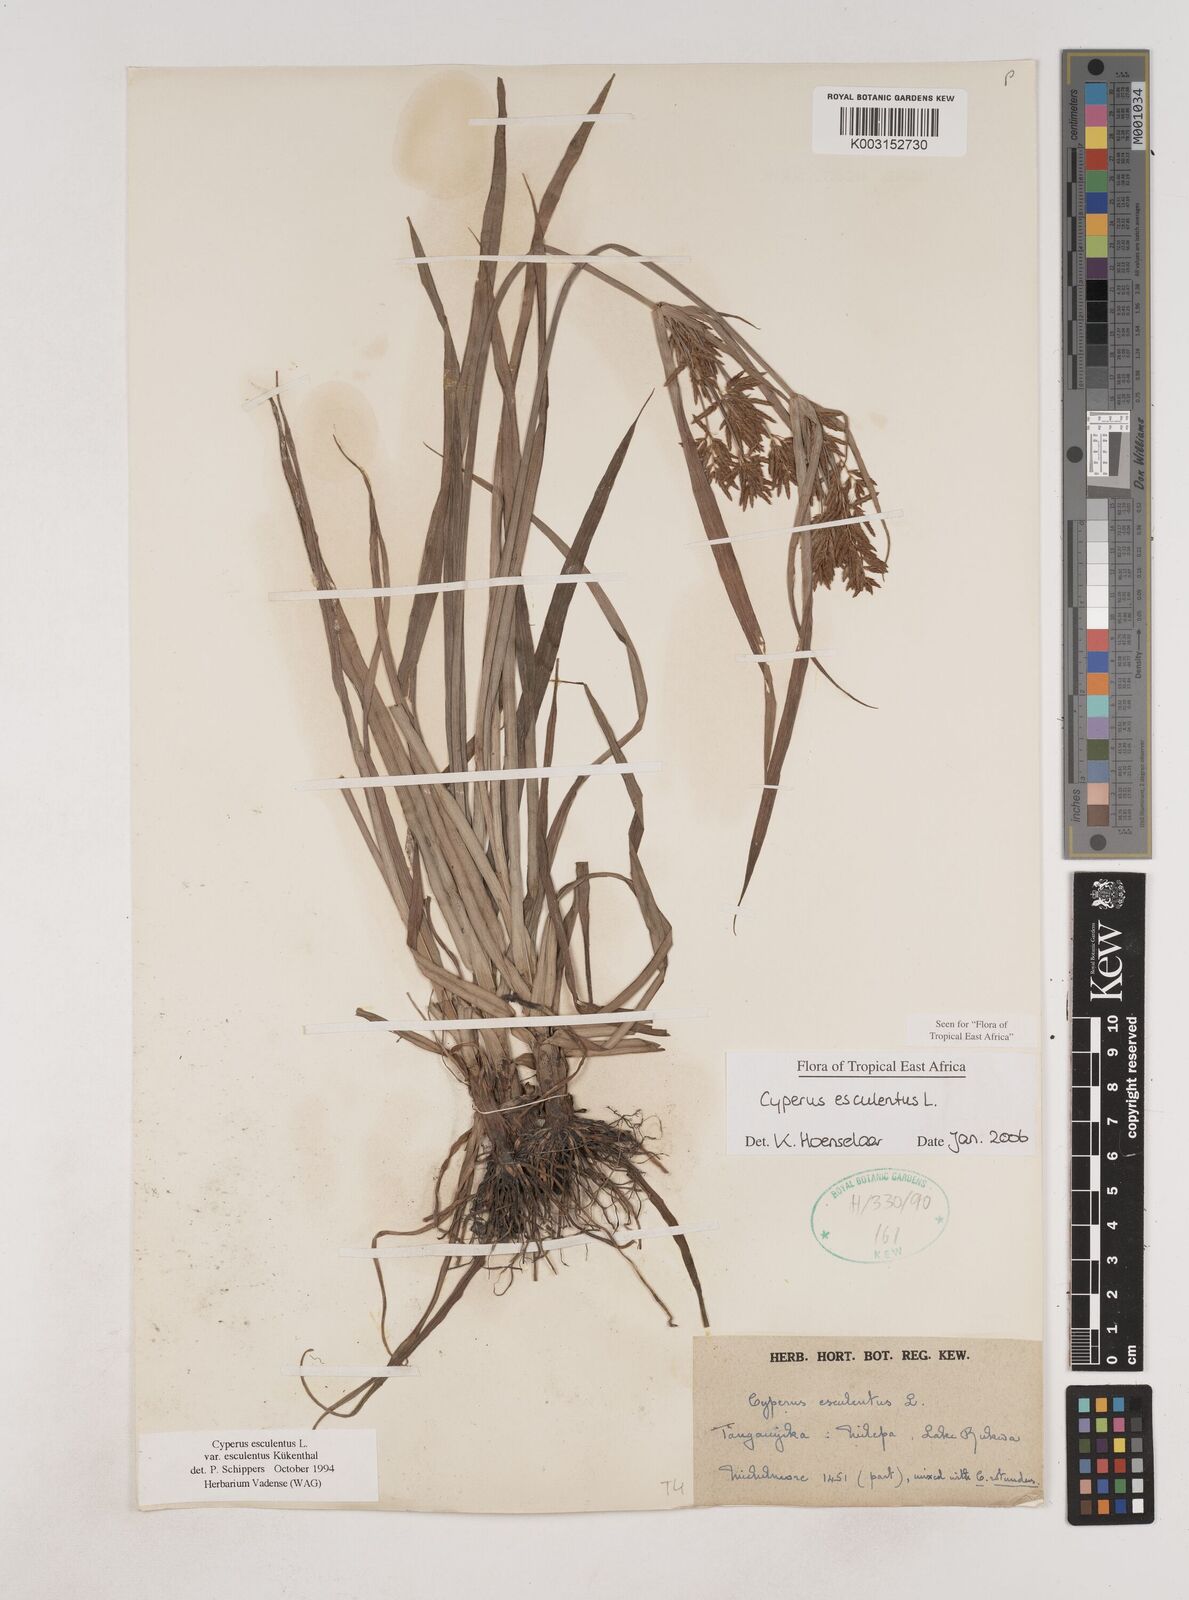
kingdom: Plantae
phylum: Tracheophyta
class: Liliopsida
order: Poales
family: Cyperaceae
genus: Cyperus
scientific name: Cyperus esculentus
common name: Yellow nutsedge
